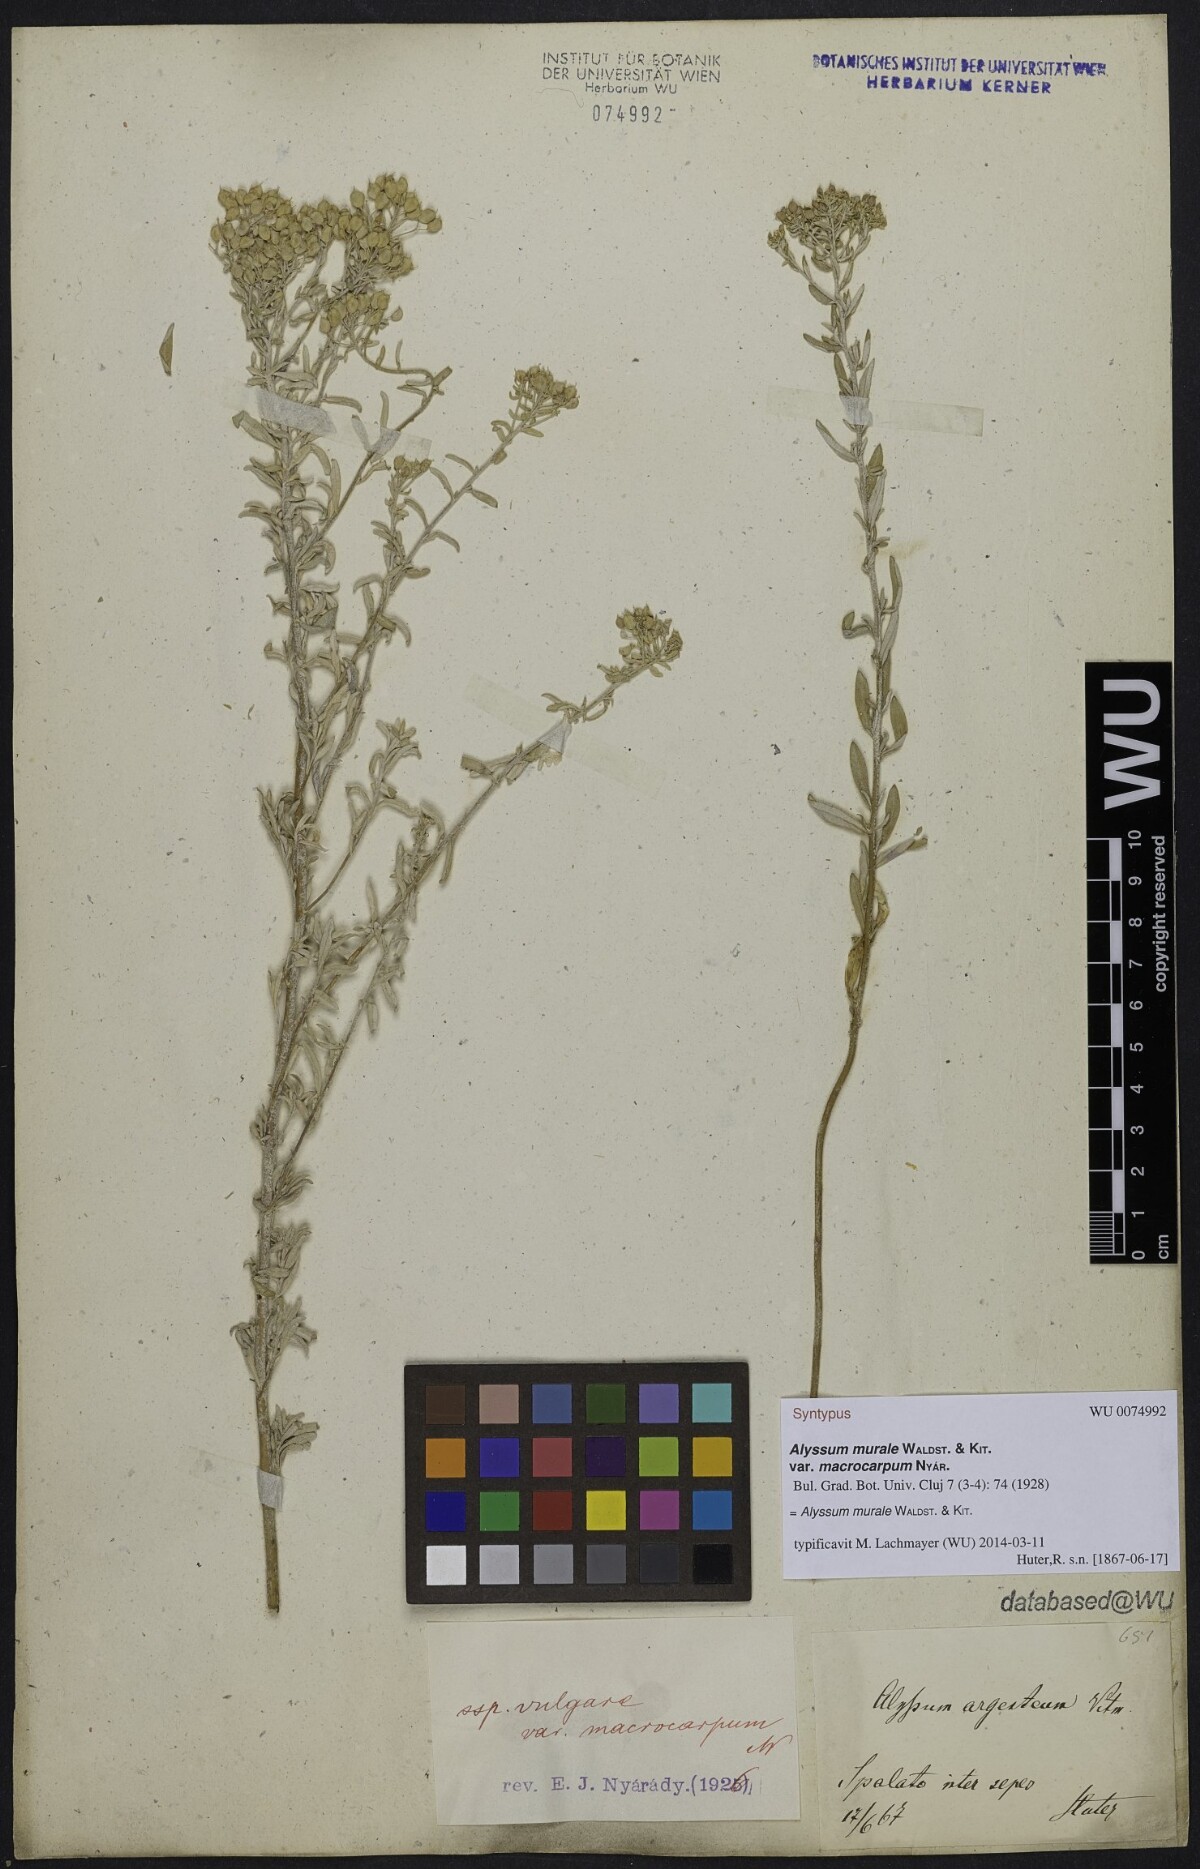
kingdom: Plantae
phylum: Tracheophyta
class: Magnoliopsida
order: Brassicales
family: Brassicaceae
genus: Odontarrhena
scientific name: Odontarrhena muralis
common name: Rock alyssum
